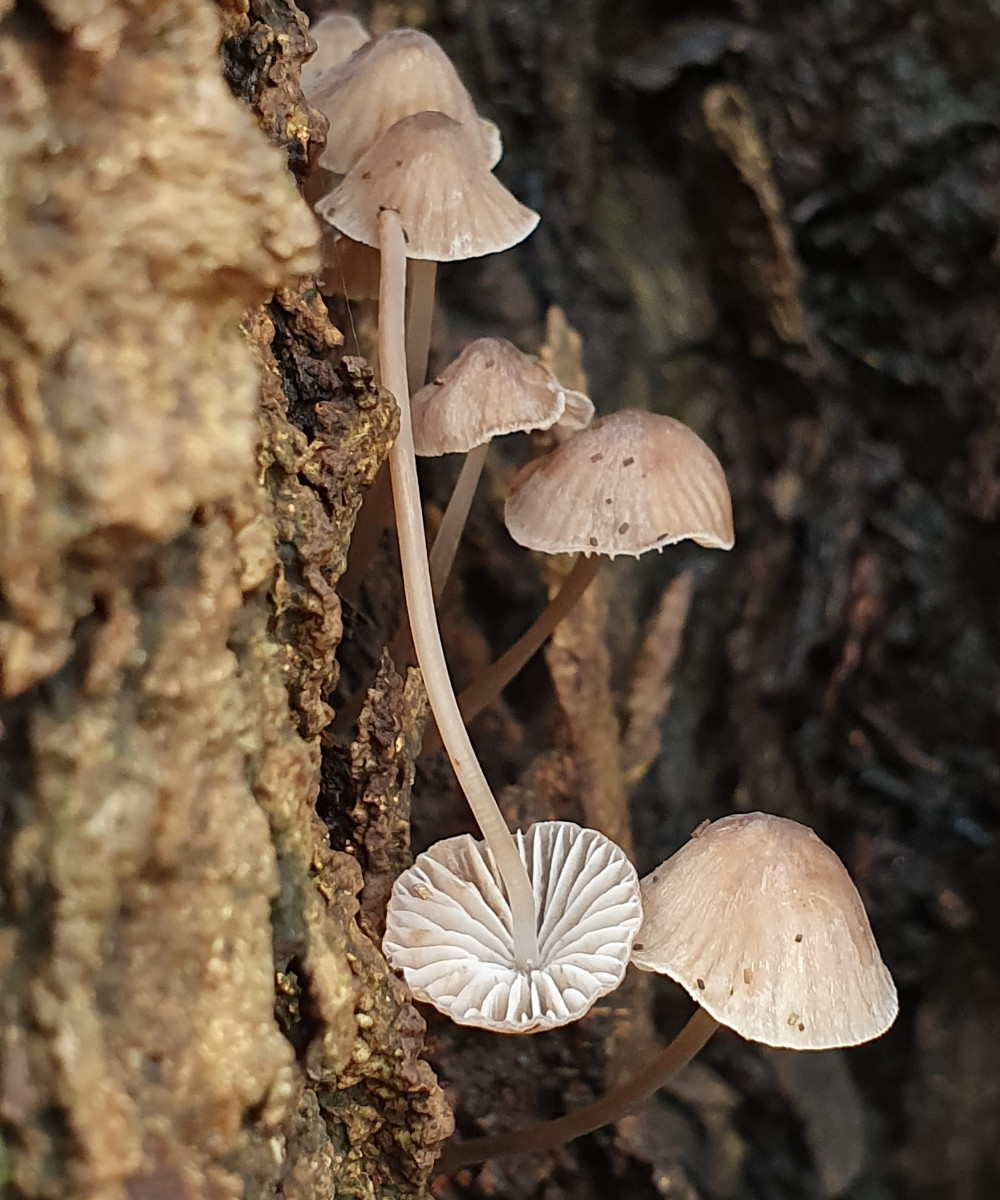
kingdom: Fungi
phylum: Basidiomycota
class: Agaricomycetes
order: Agaricales
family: Mycenaceae
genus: Mycena
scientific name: Mycena erubescens
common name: galde-huesvamp
